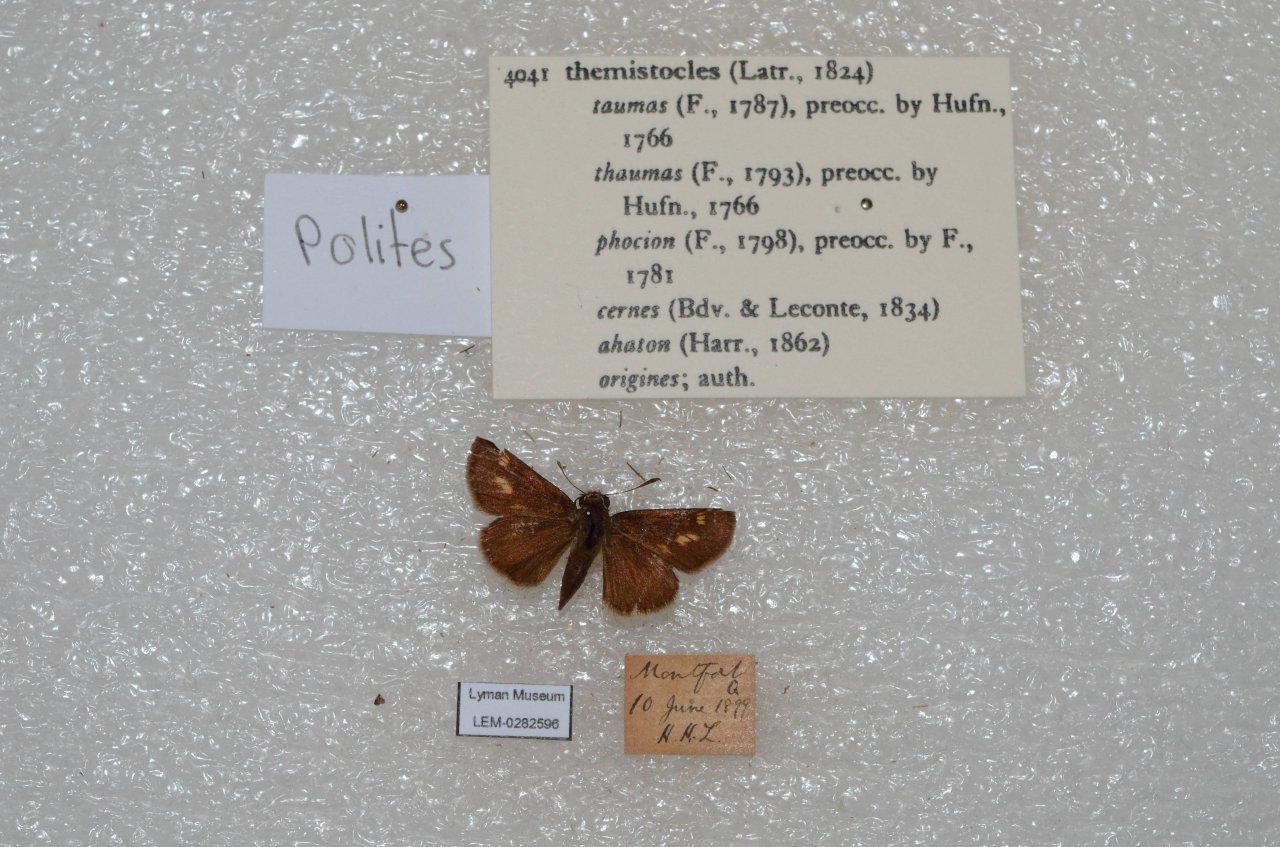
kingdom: Animalia
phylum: Arthropoda
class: Insecta
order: Lepidoptera
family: Hesperiidae
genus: Polites
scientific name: Polites themistocles
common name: Tawny-edged Skipper
